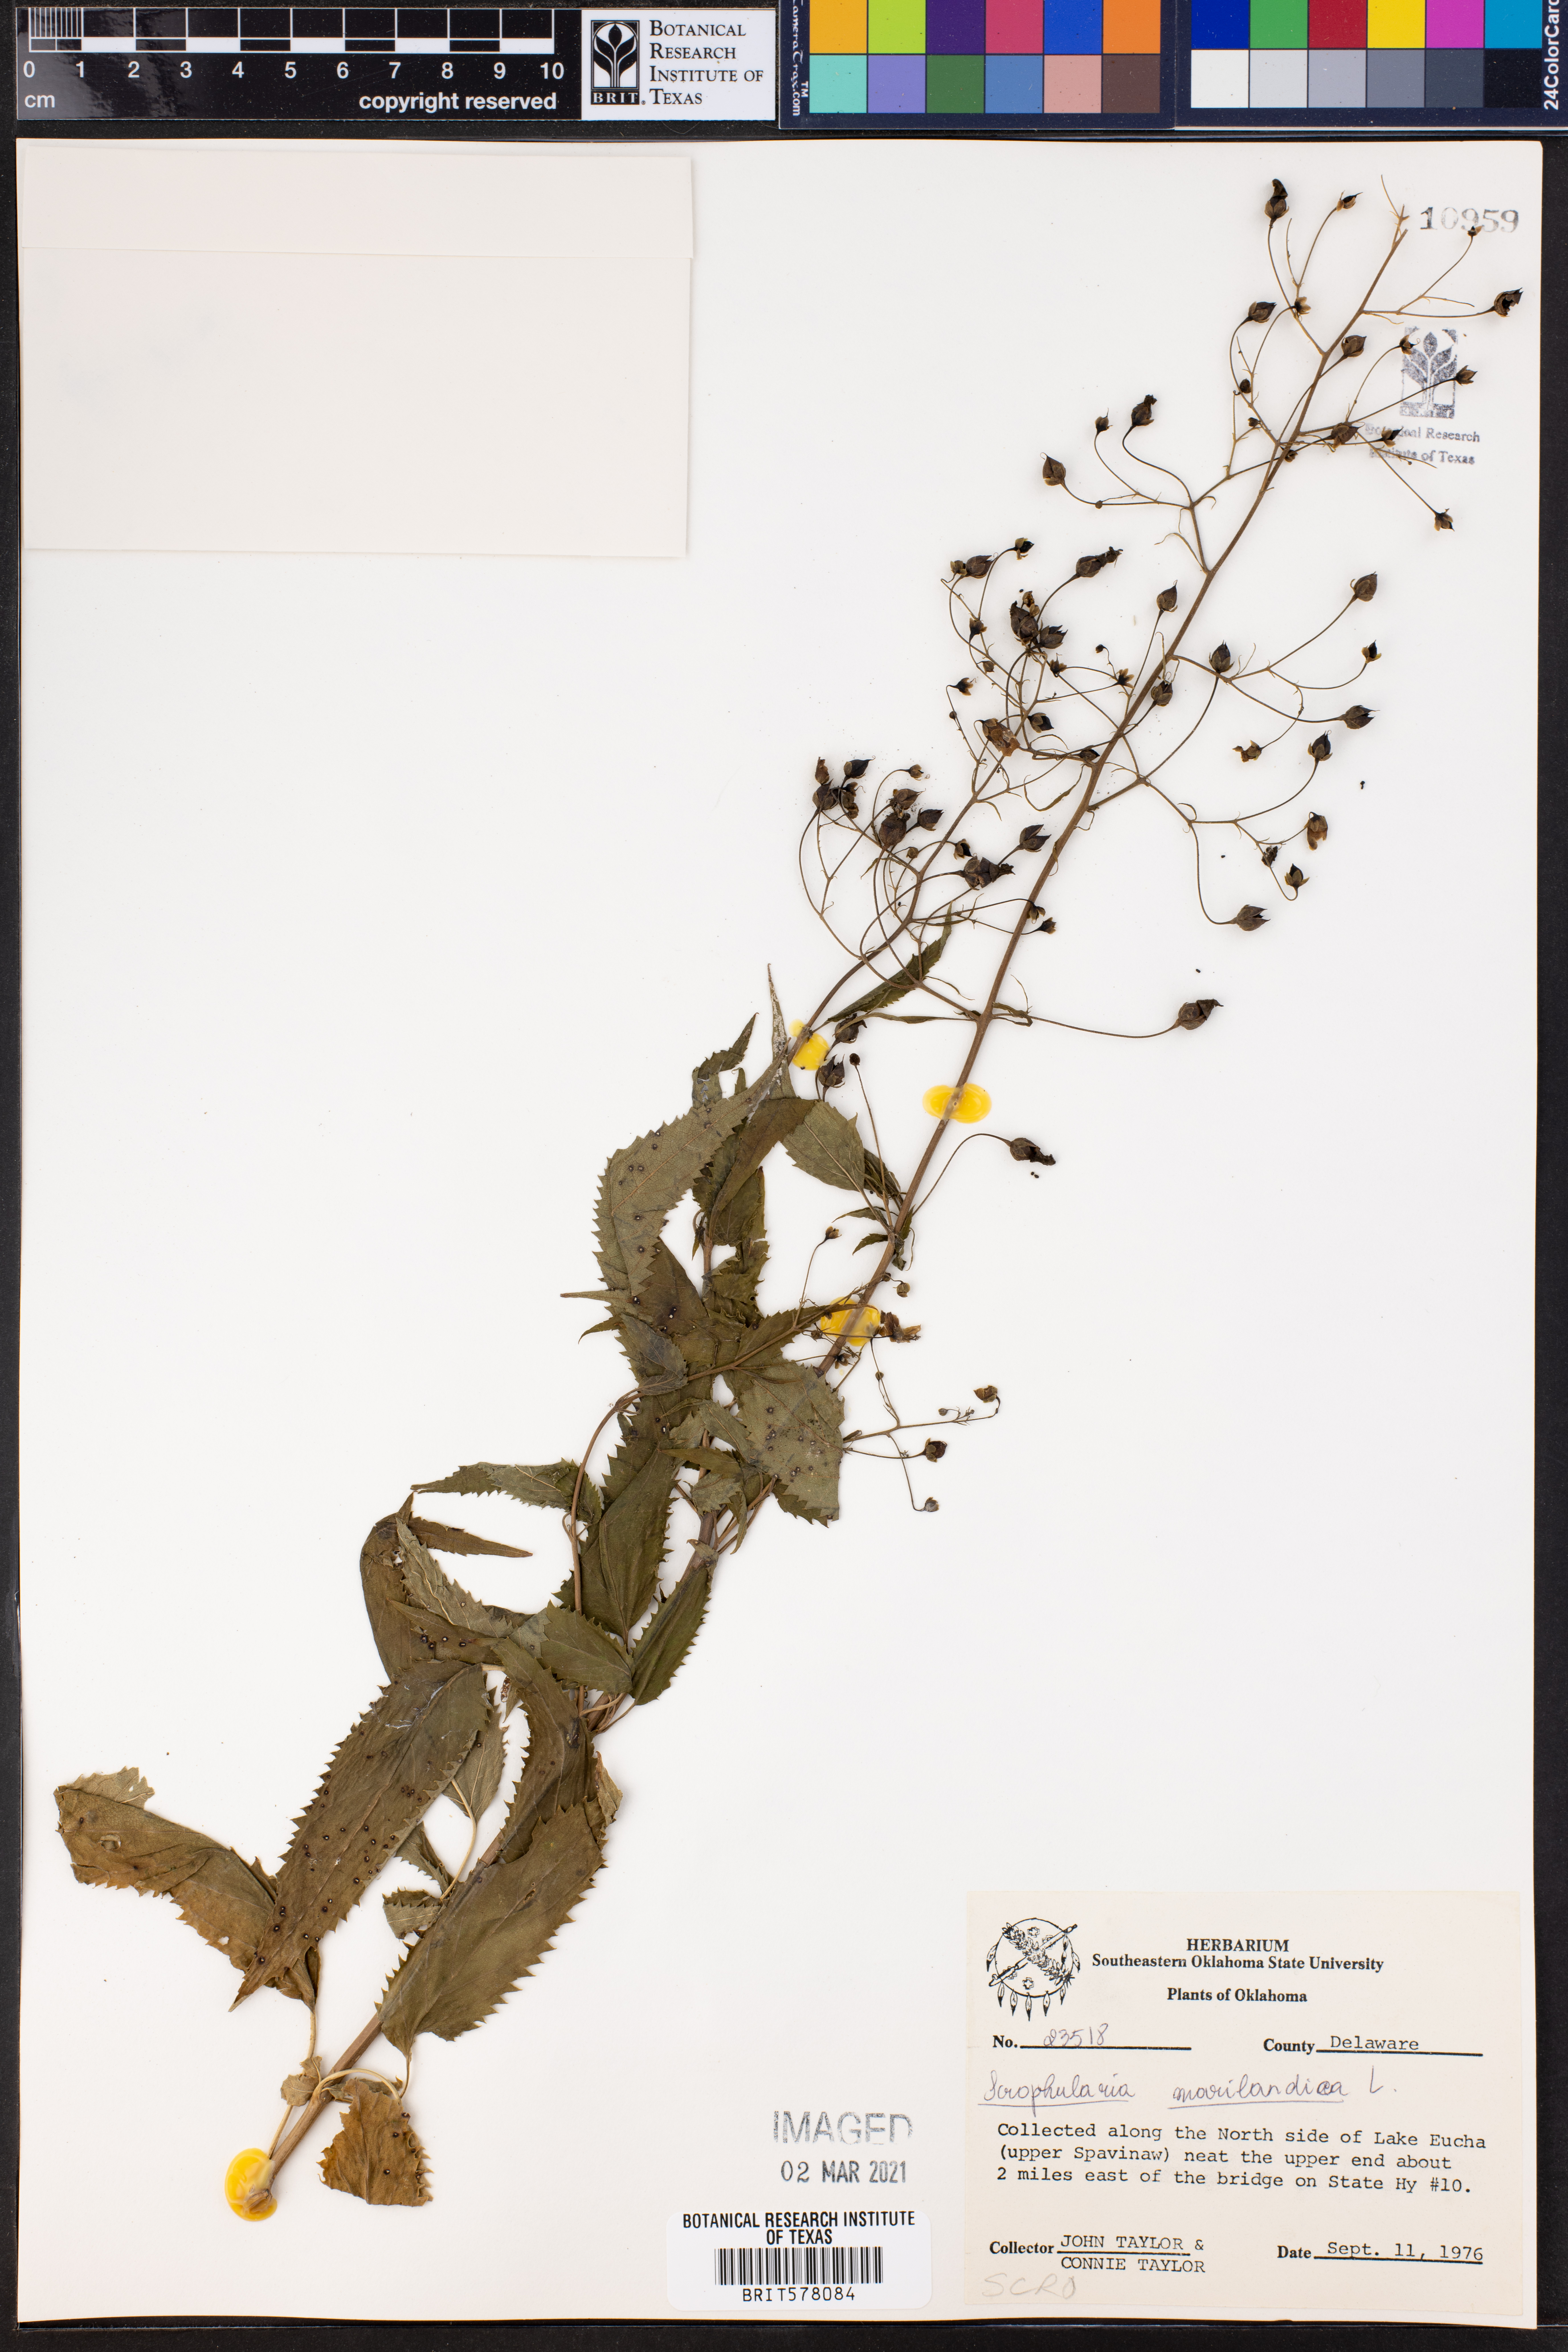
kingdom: Plantae
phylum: Tracheophyta
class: Magnoliopsida
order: Lamiales
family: Scrophulariaceae
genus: Scrophularia
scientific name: Scrophularia marilandica
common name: Eastern figwort
